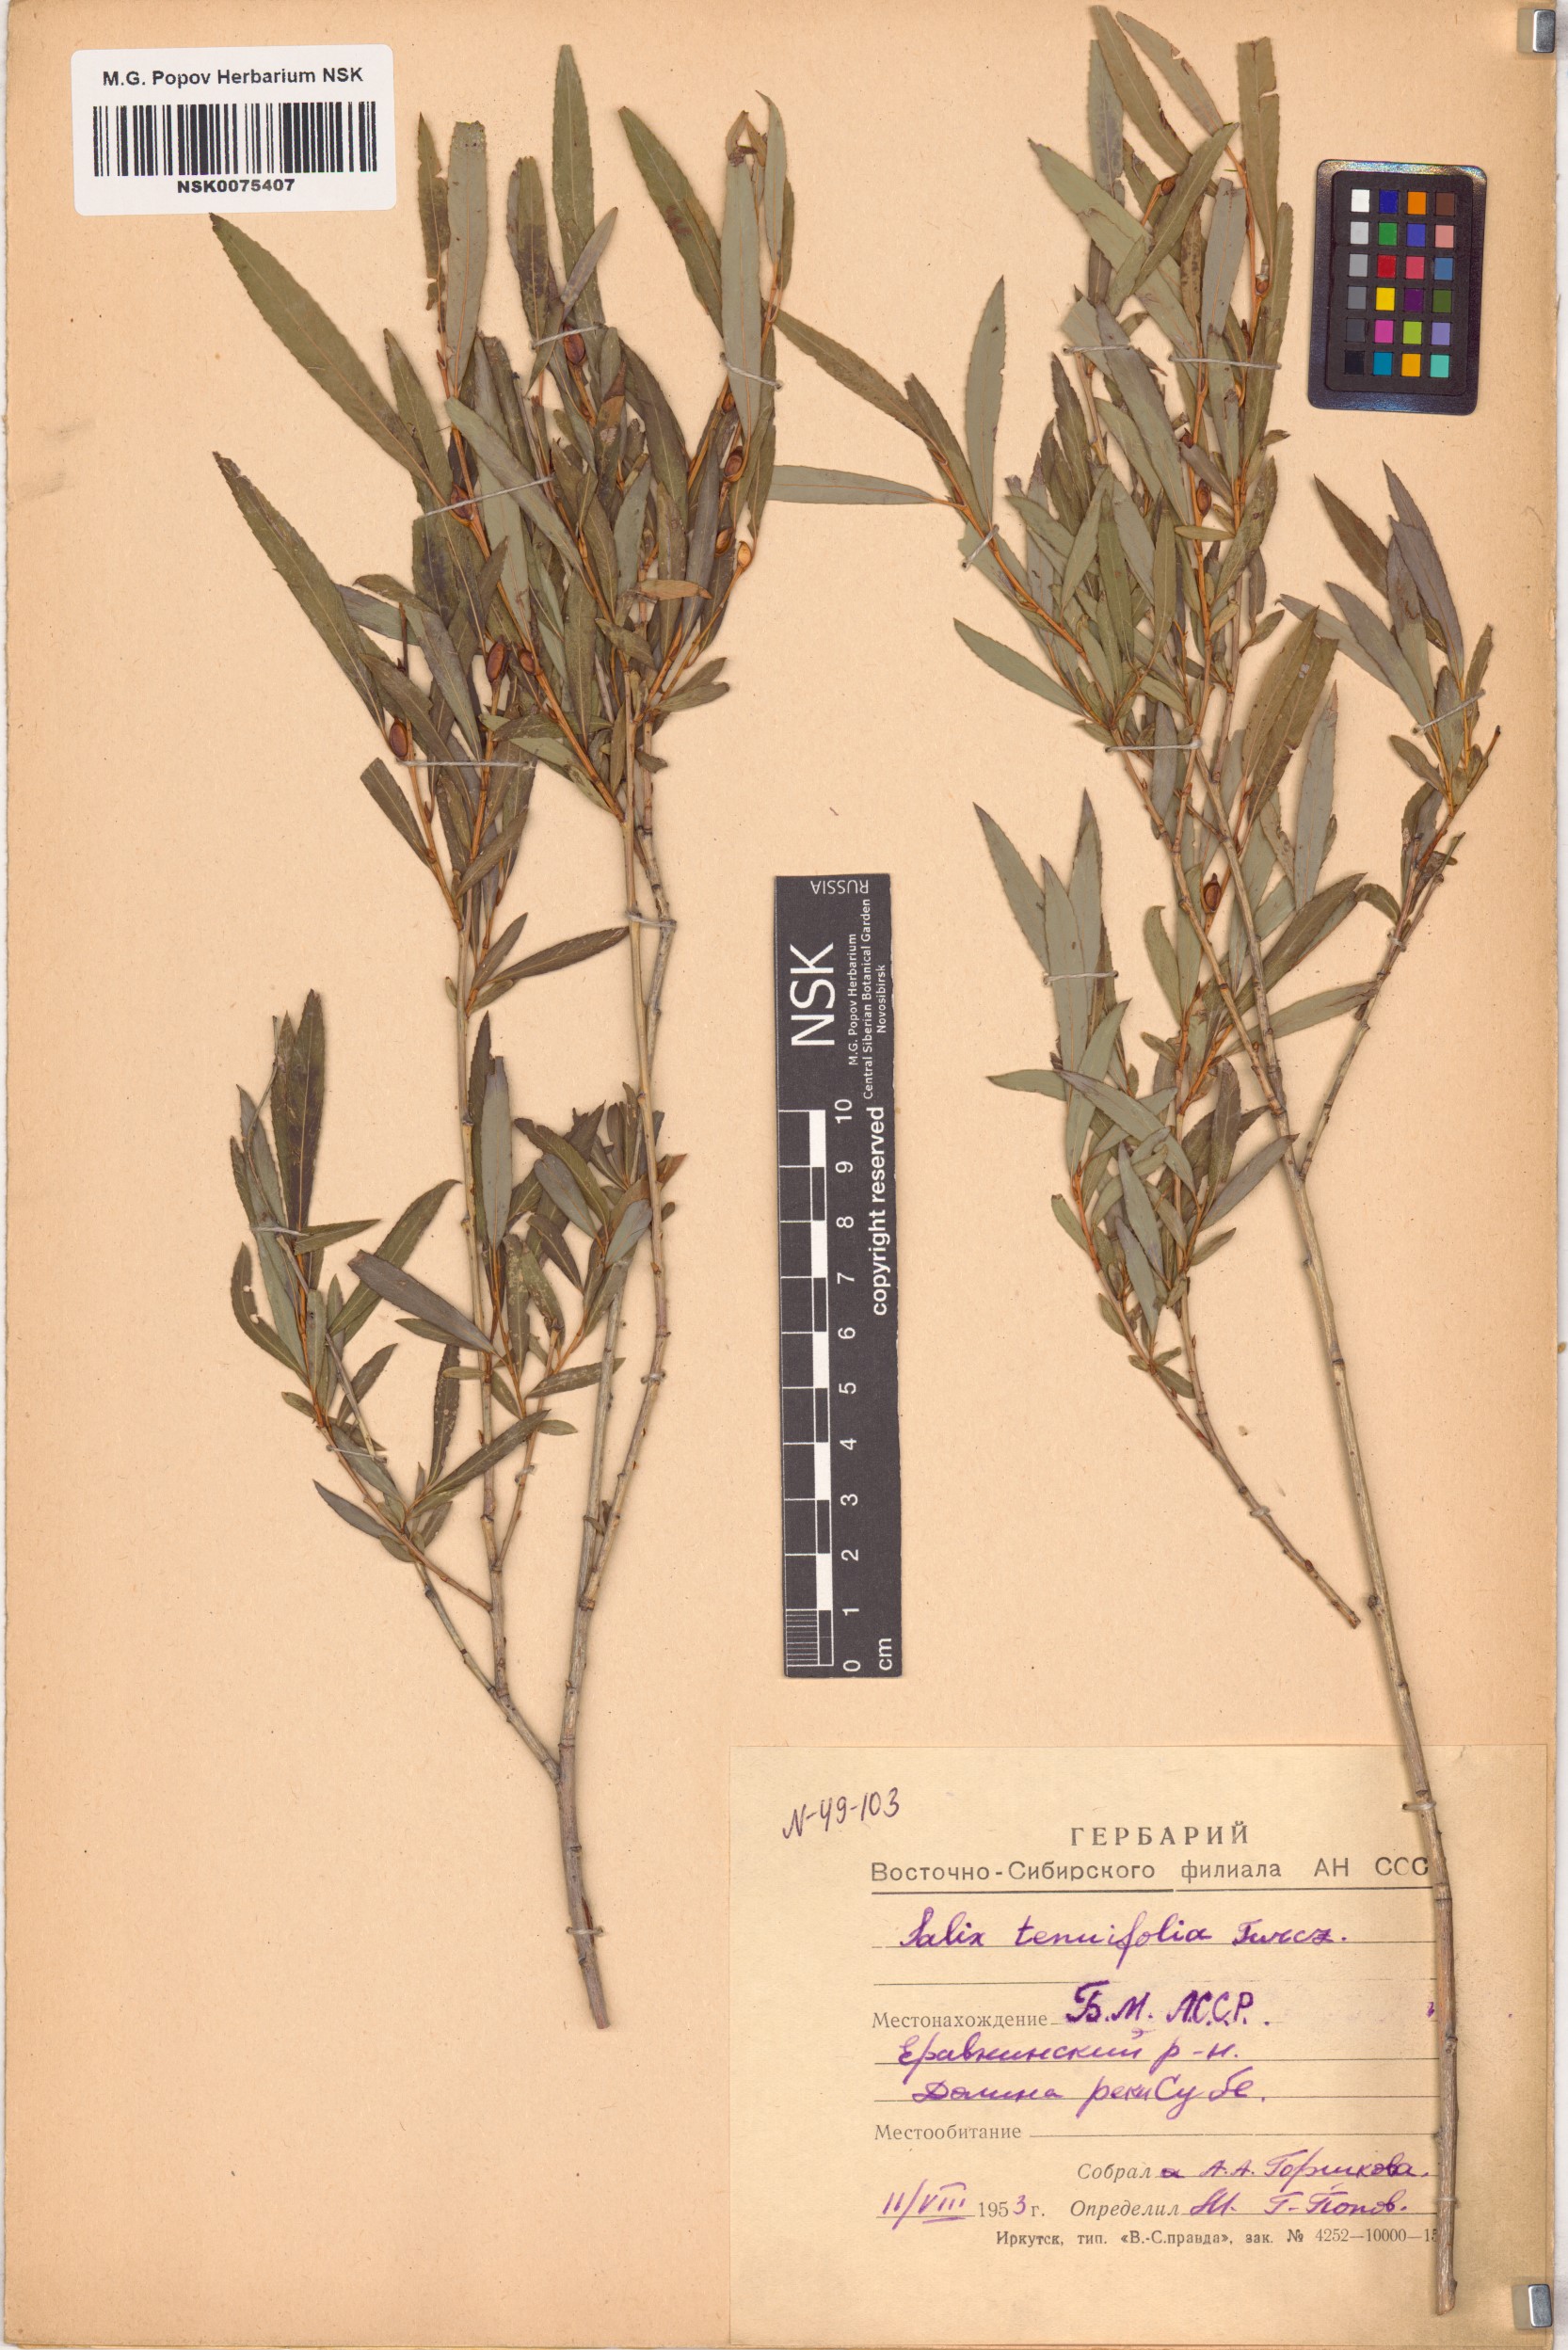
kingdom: Plantae
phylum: Tracheophyta
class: Magnoliopsida
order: Malpighiales
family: Salicaceae
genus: Salix
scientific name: Salix
